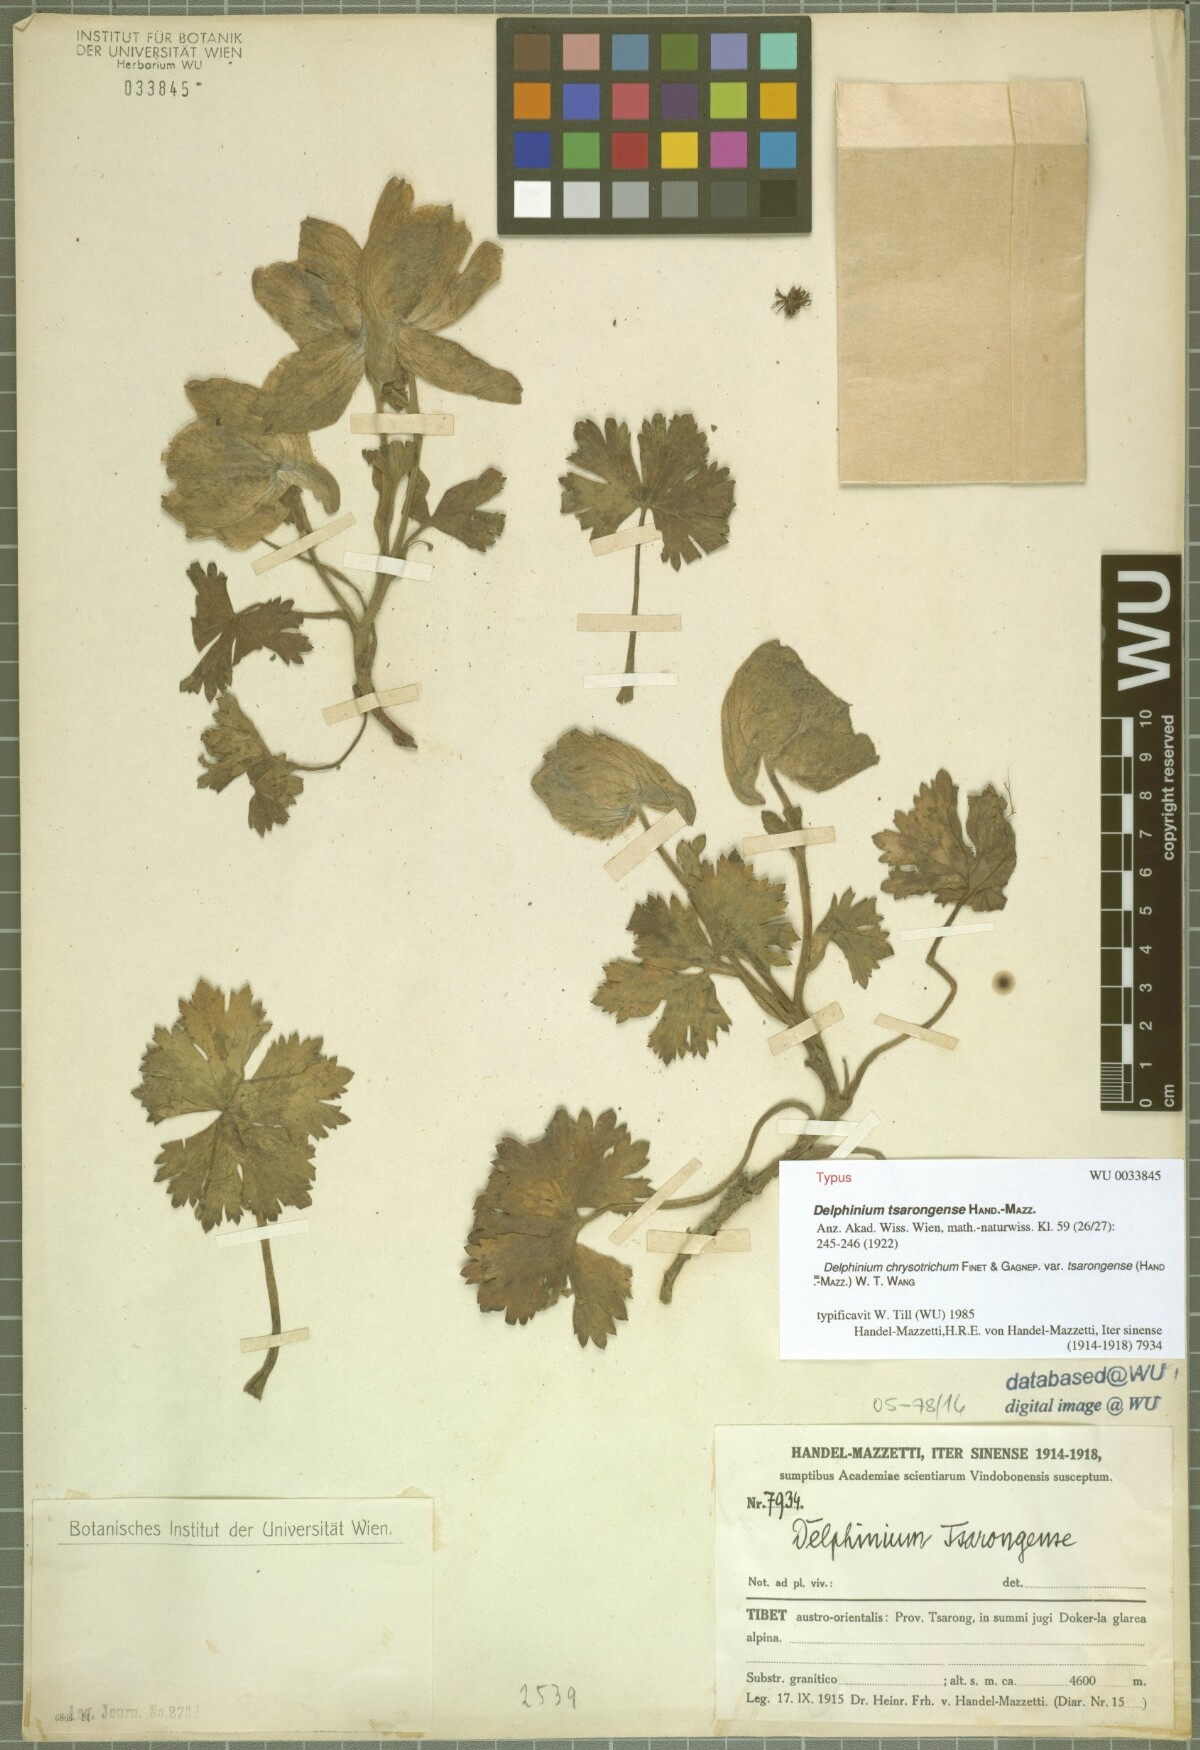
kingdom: Plantae
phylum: Tracheophyta
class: Magnoliopsida
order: Ranunculales
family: Ranunculaceae
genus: Delphinium
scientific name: Delphinium chrysotrichum
